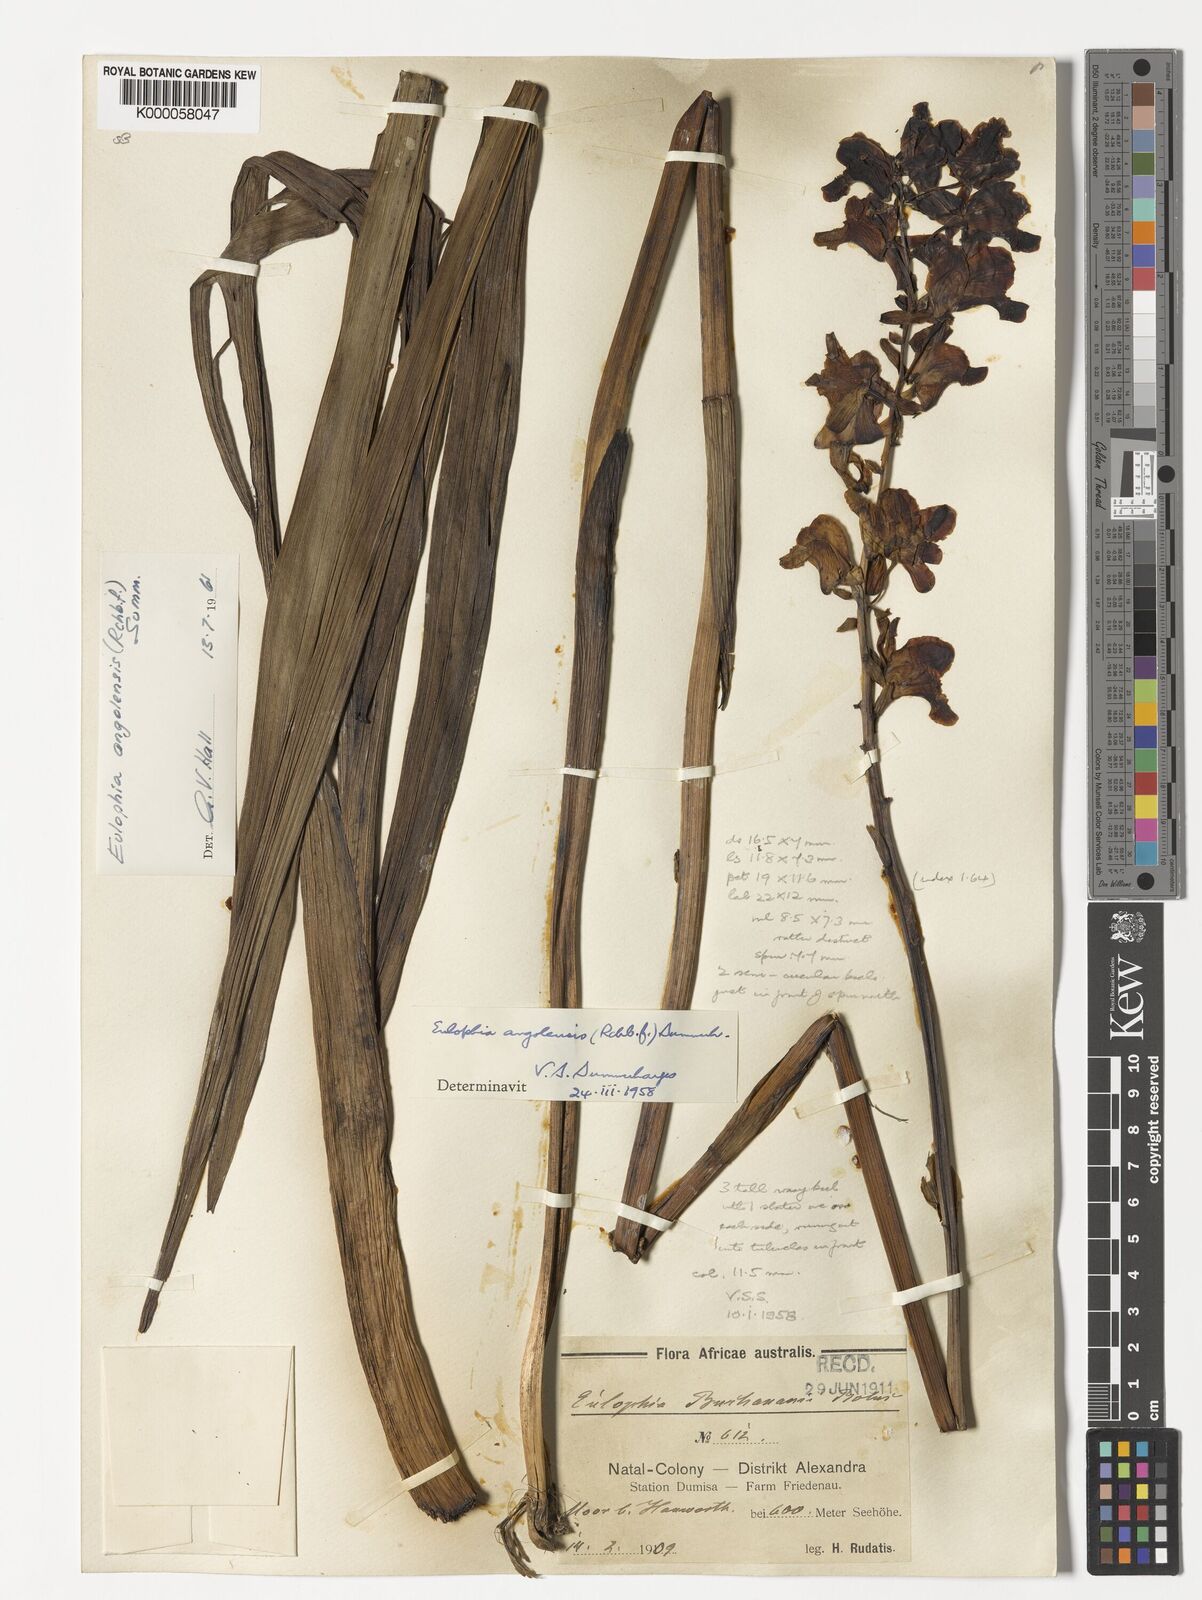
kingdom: Plantae
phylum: Tracheophyta
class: Liliopsida
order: Asparagales
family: Orchidaceae
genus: Eulophia
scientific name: Eulophia angolensis
